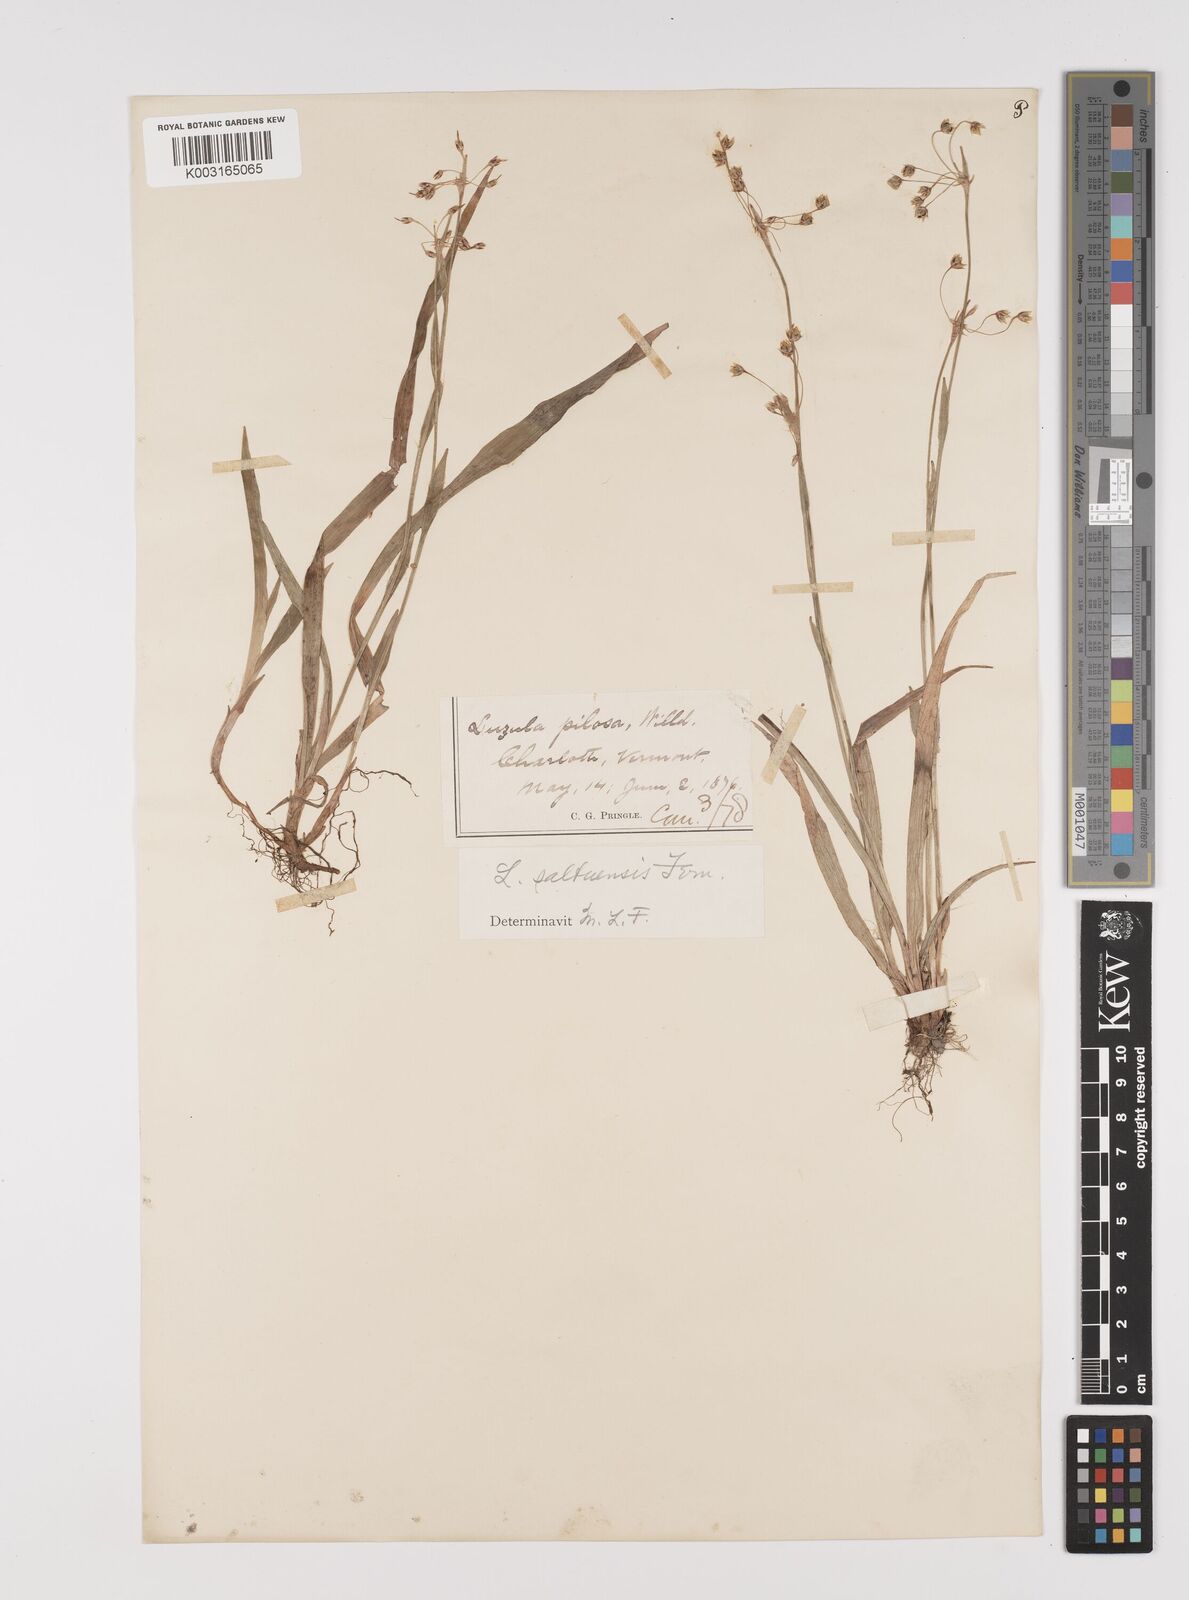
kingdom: Plantae
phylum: Tracheophyta
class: Liliopsida
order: Poales
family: Juncaceae
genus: Luzula
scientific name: Luzula acuminata
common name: Hairy woodrush
